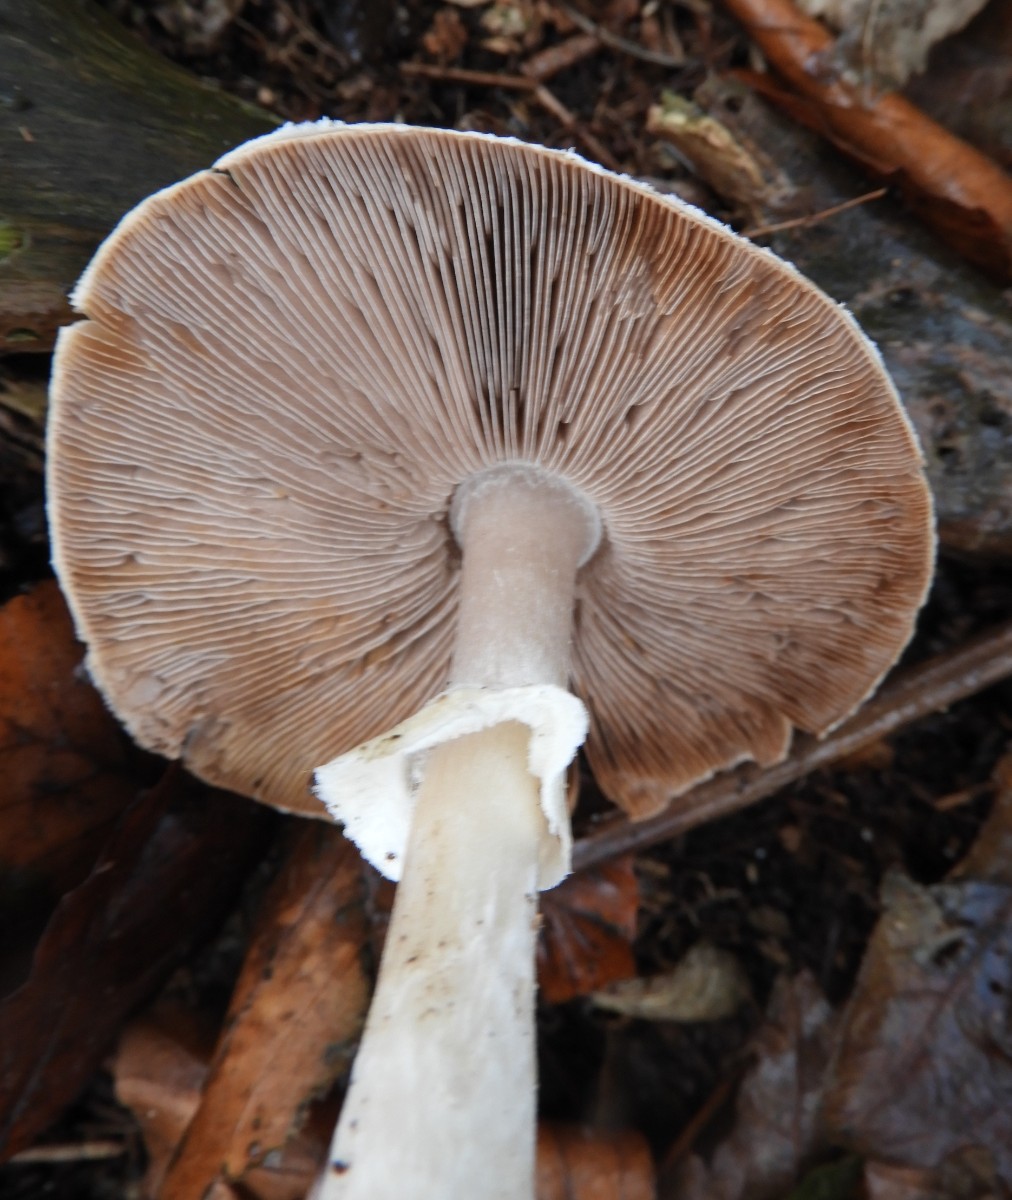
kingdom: Fungi
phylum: Basidiomycota
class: Agaricomycetes
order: Agaricales
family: Agaricaceae
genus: Agaricus
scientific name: Agaricus impudicus
